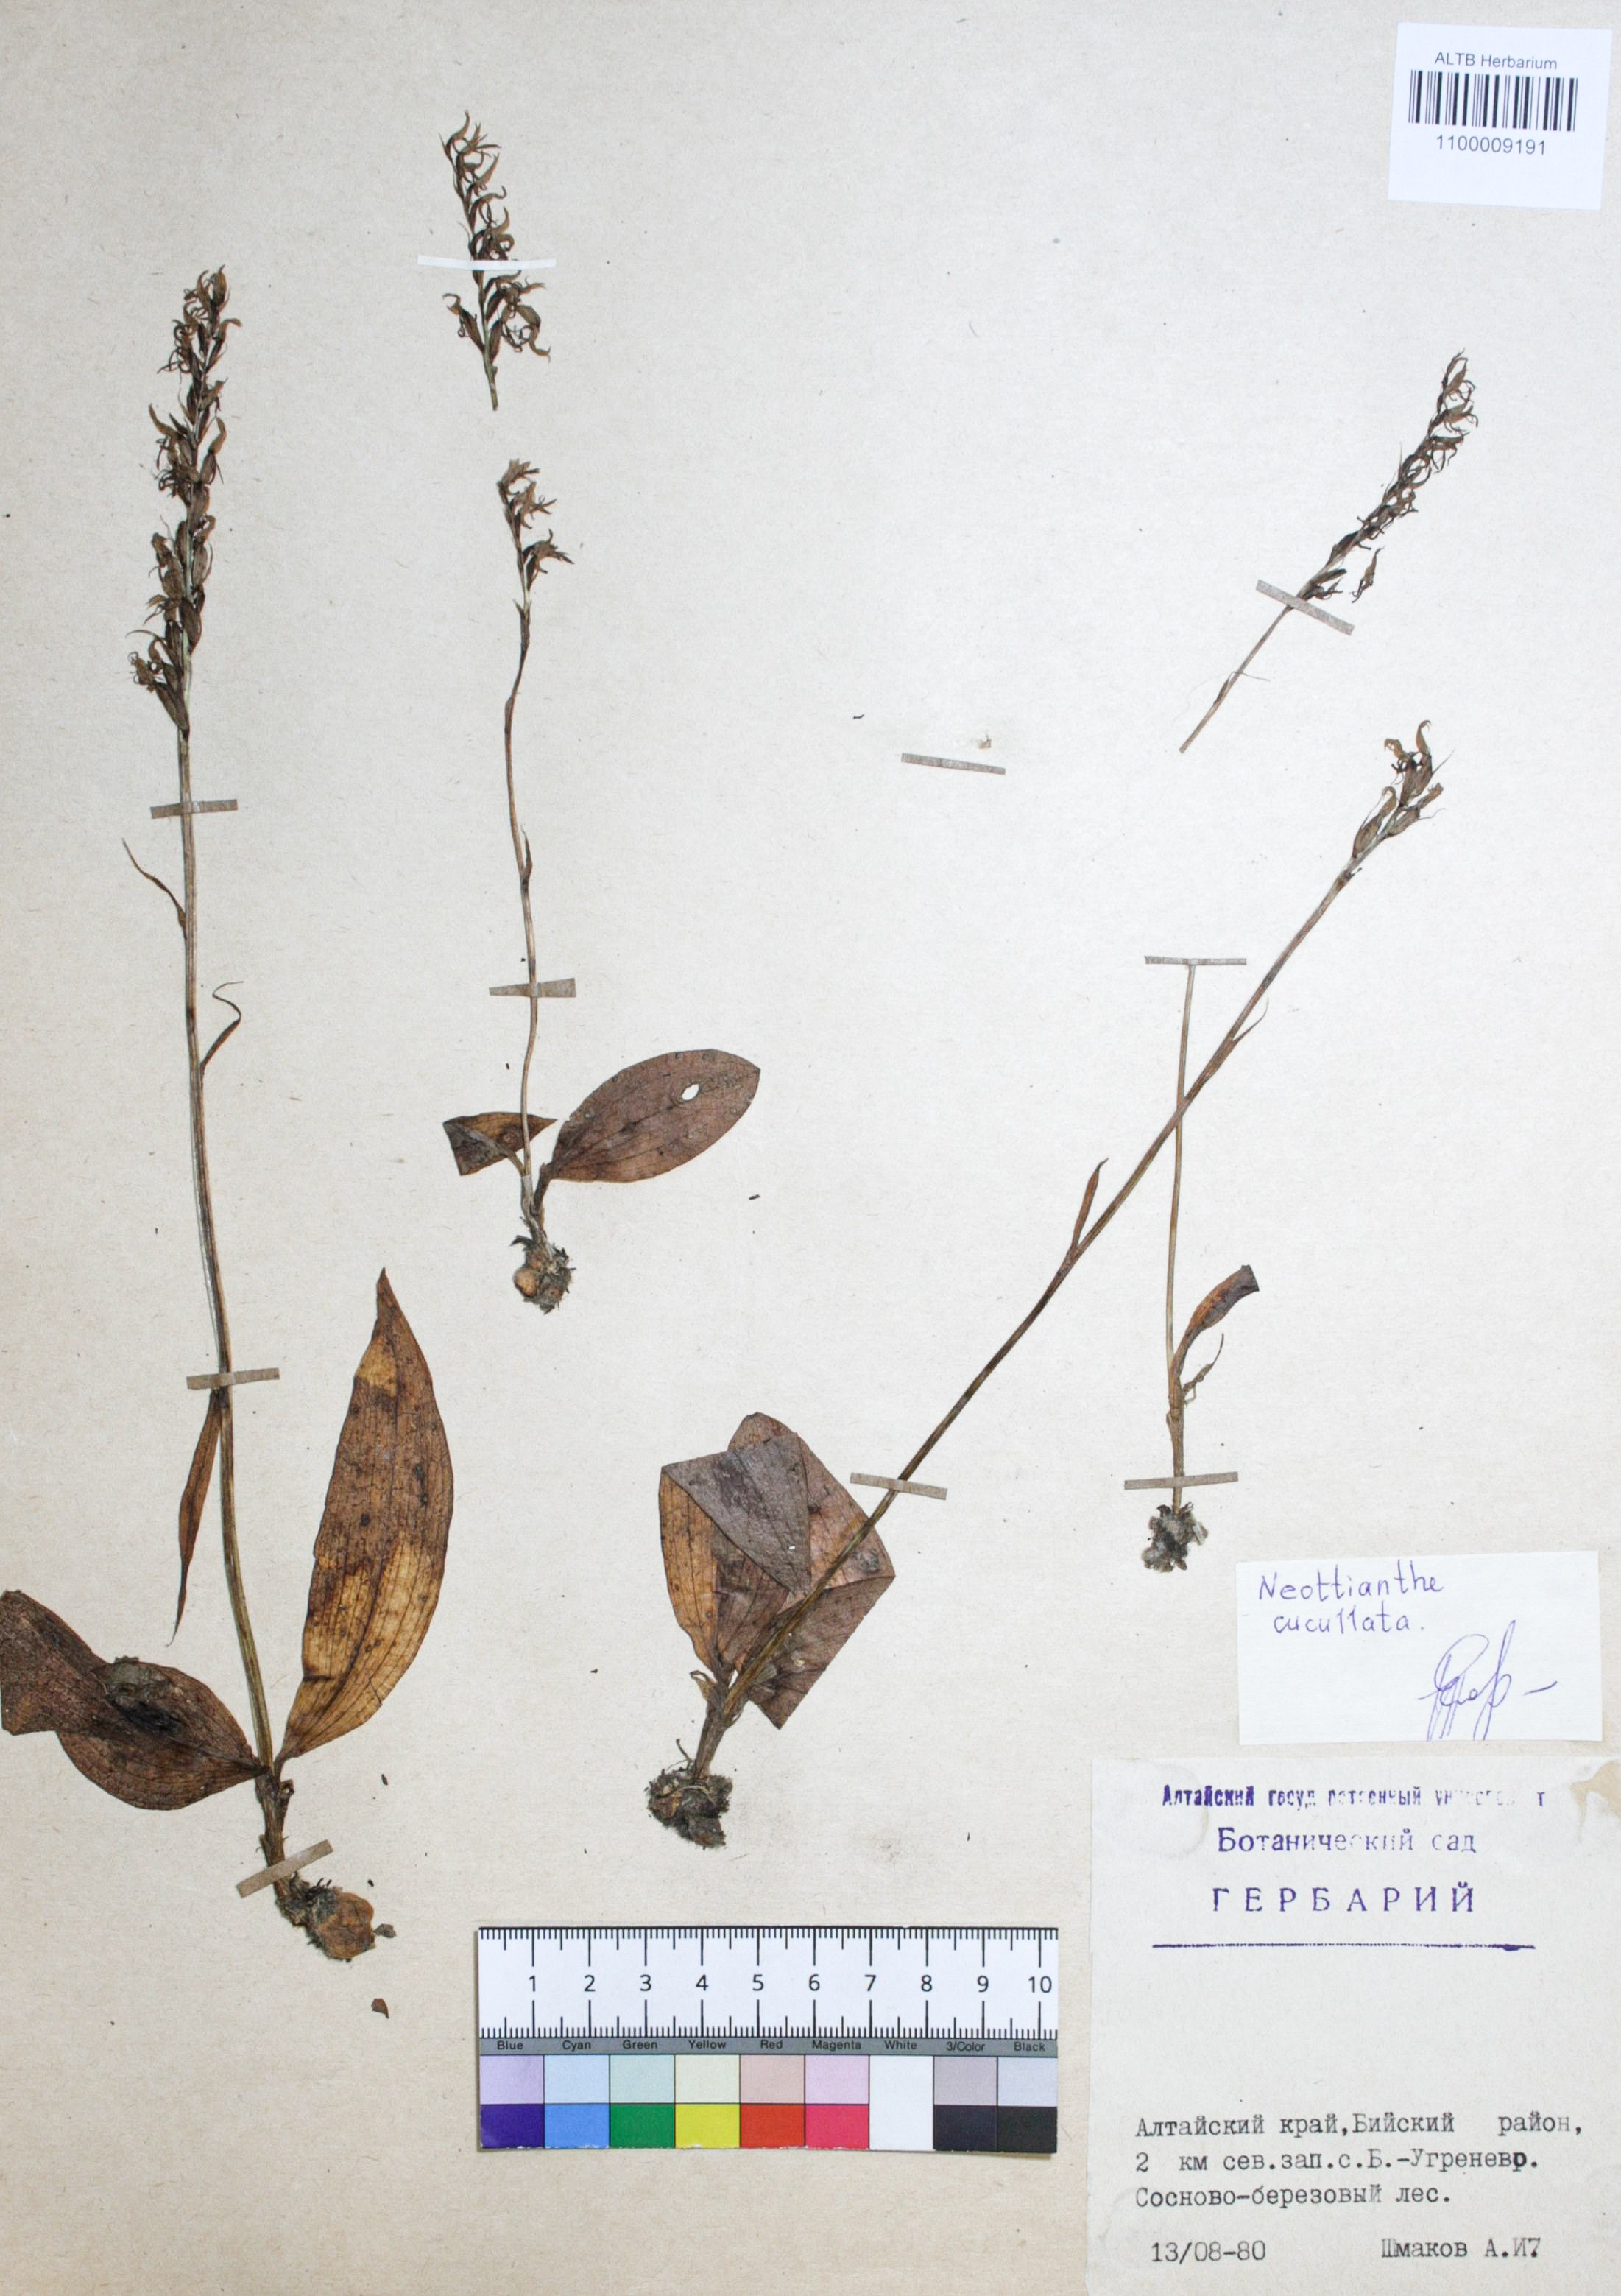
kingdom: Plantae
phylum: Tracheophyta
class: Liliopsida
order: Asparagales
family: Orchidaceae
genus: Hemipilia
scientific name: Hemipilia cucullata
